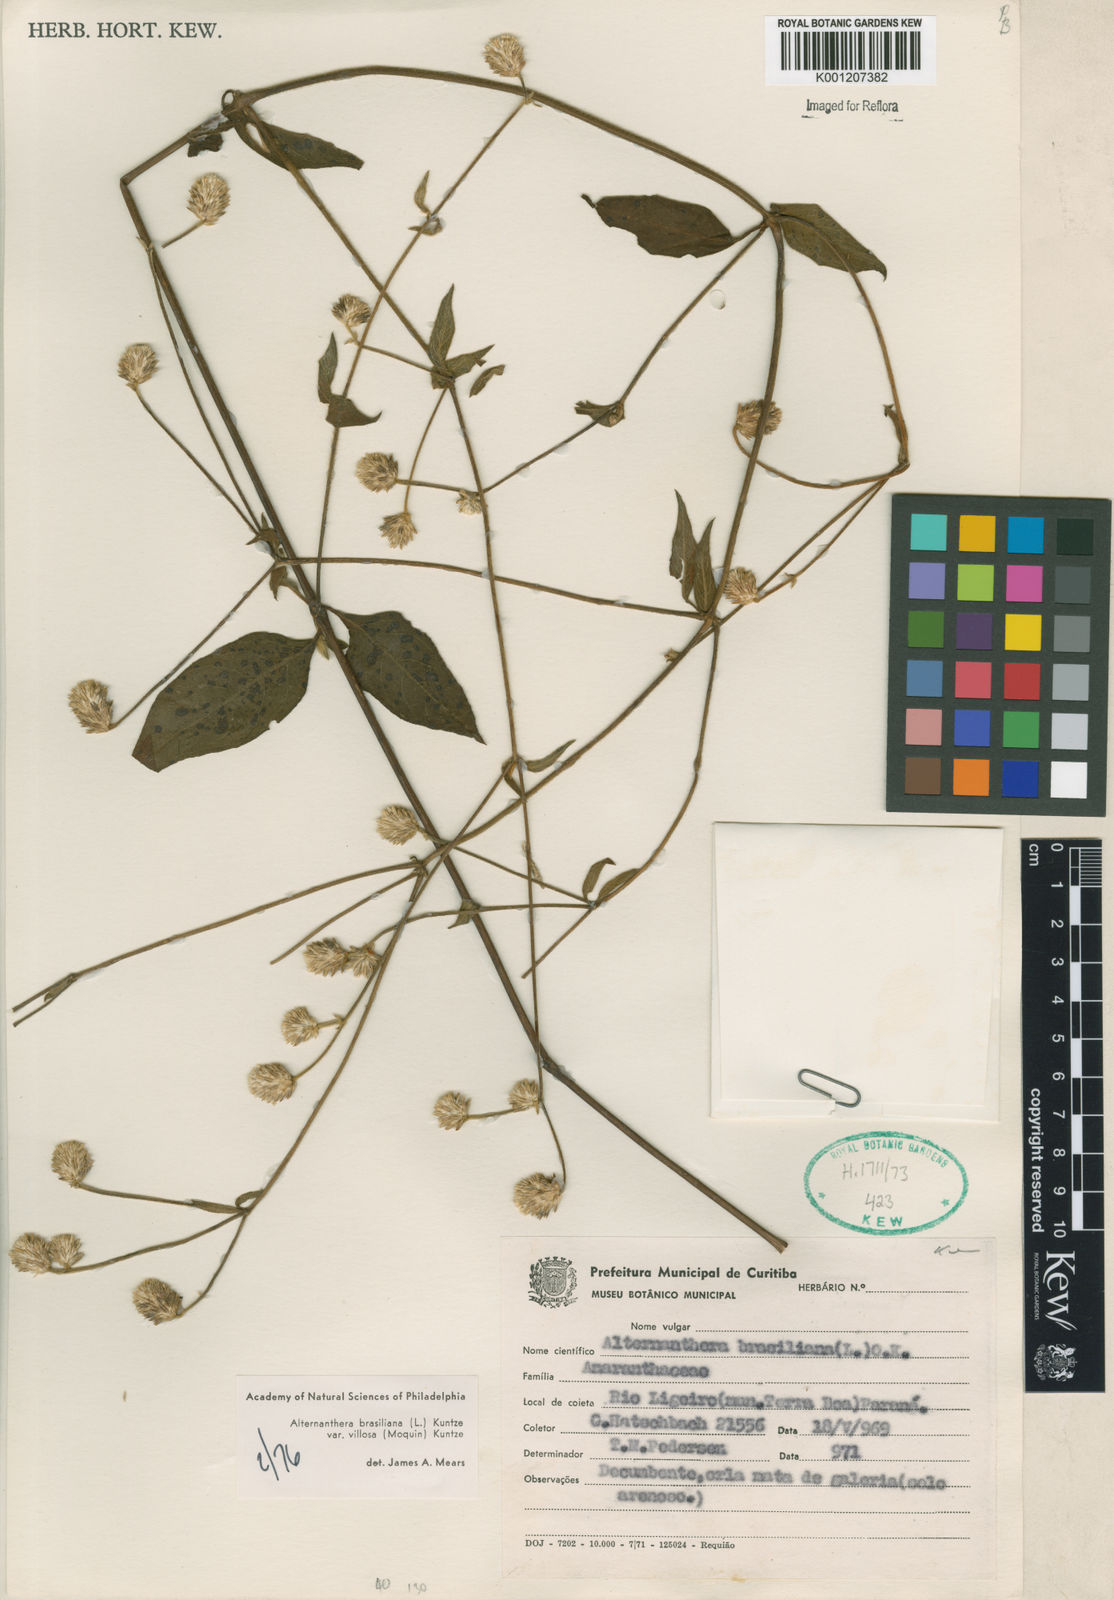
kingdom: Plantae
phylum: Tracheophyta
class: Magnoliopsida
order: Caryophyllales
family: Amaranthaceae
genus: Alternanthera
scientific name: Alternanthera ramosissima
